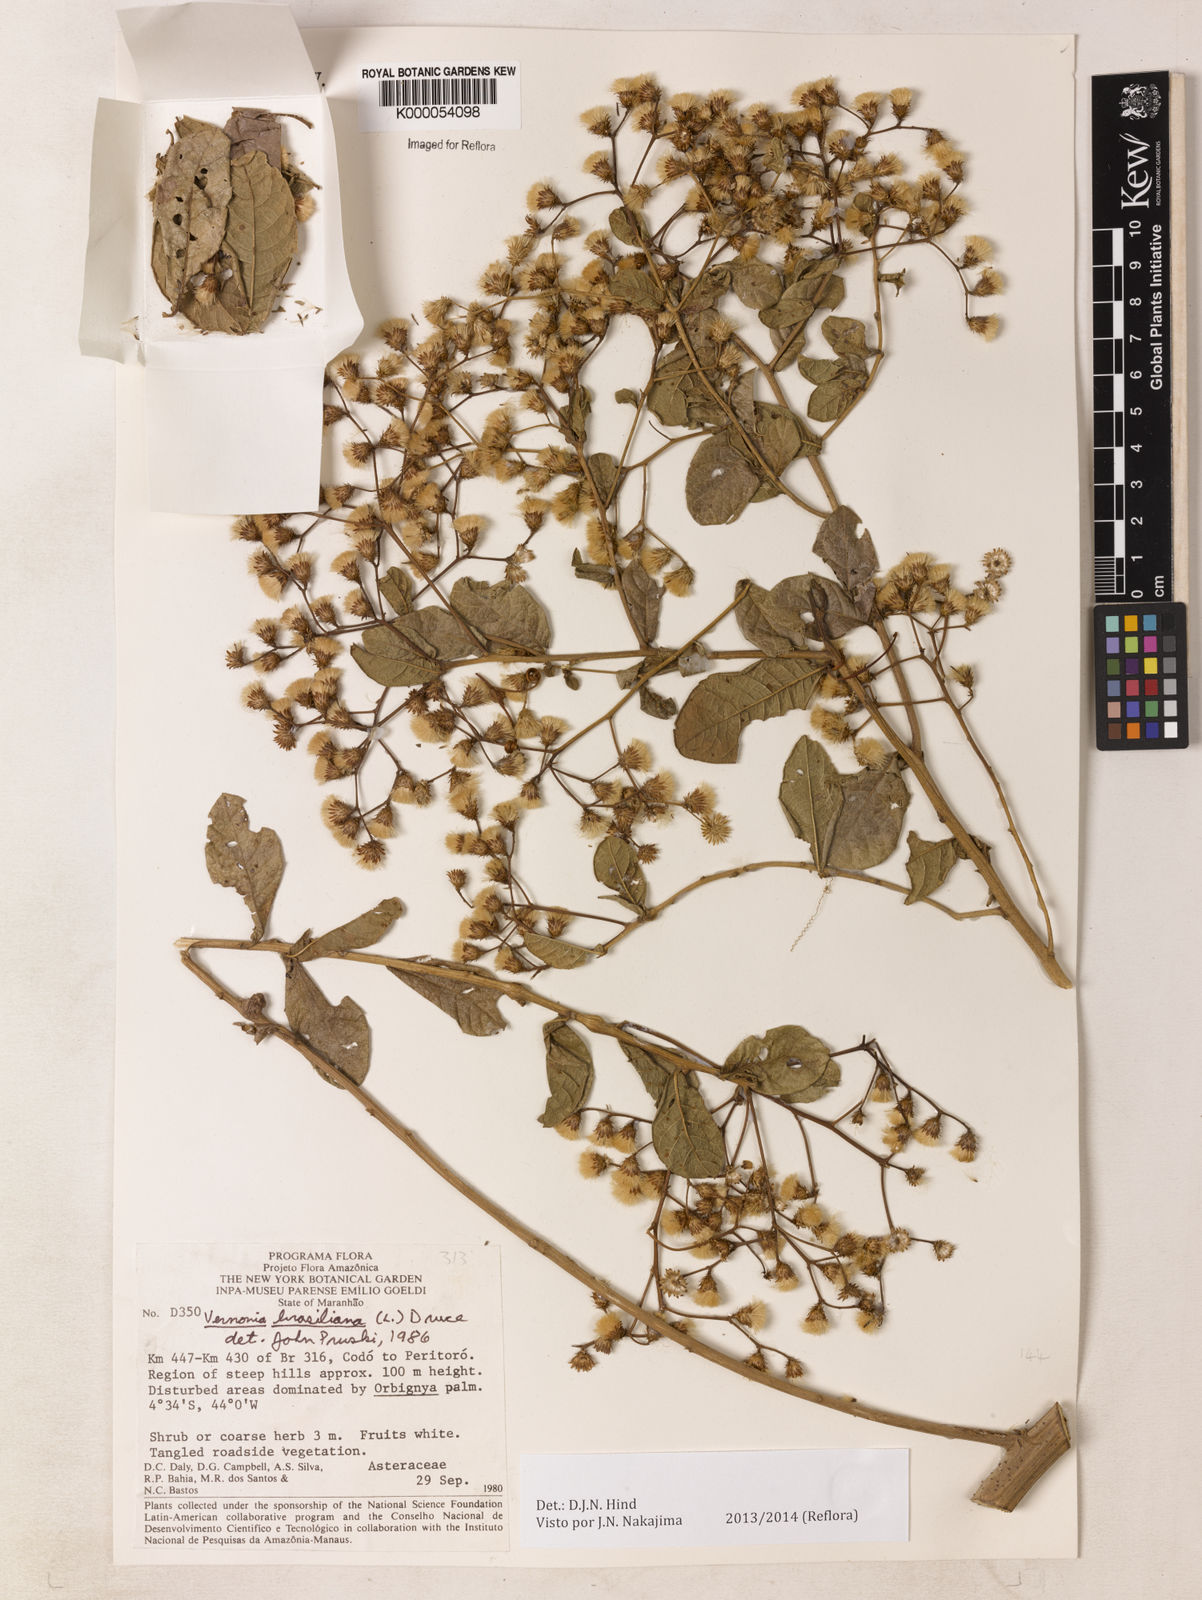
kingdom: Plantae
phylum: Tracheophyta
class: Magnoliopsida
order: Asterales
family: Asteraceae
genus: Vernonanthura
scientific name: Vernonanthura brasiliana
